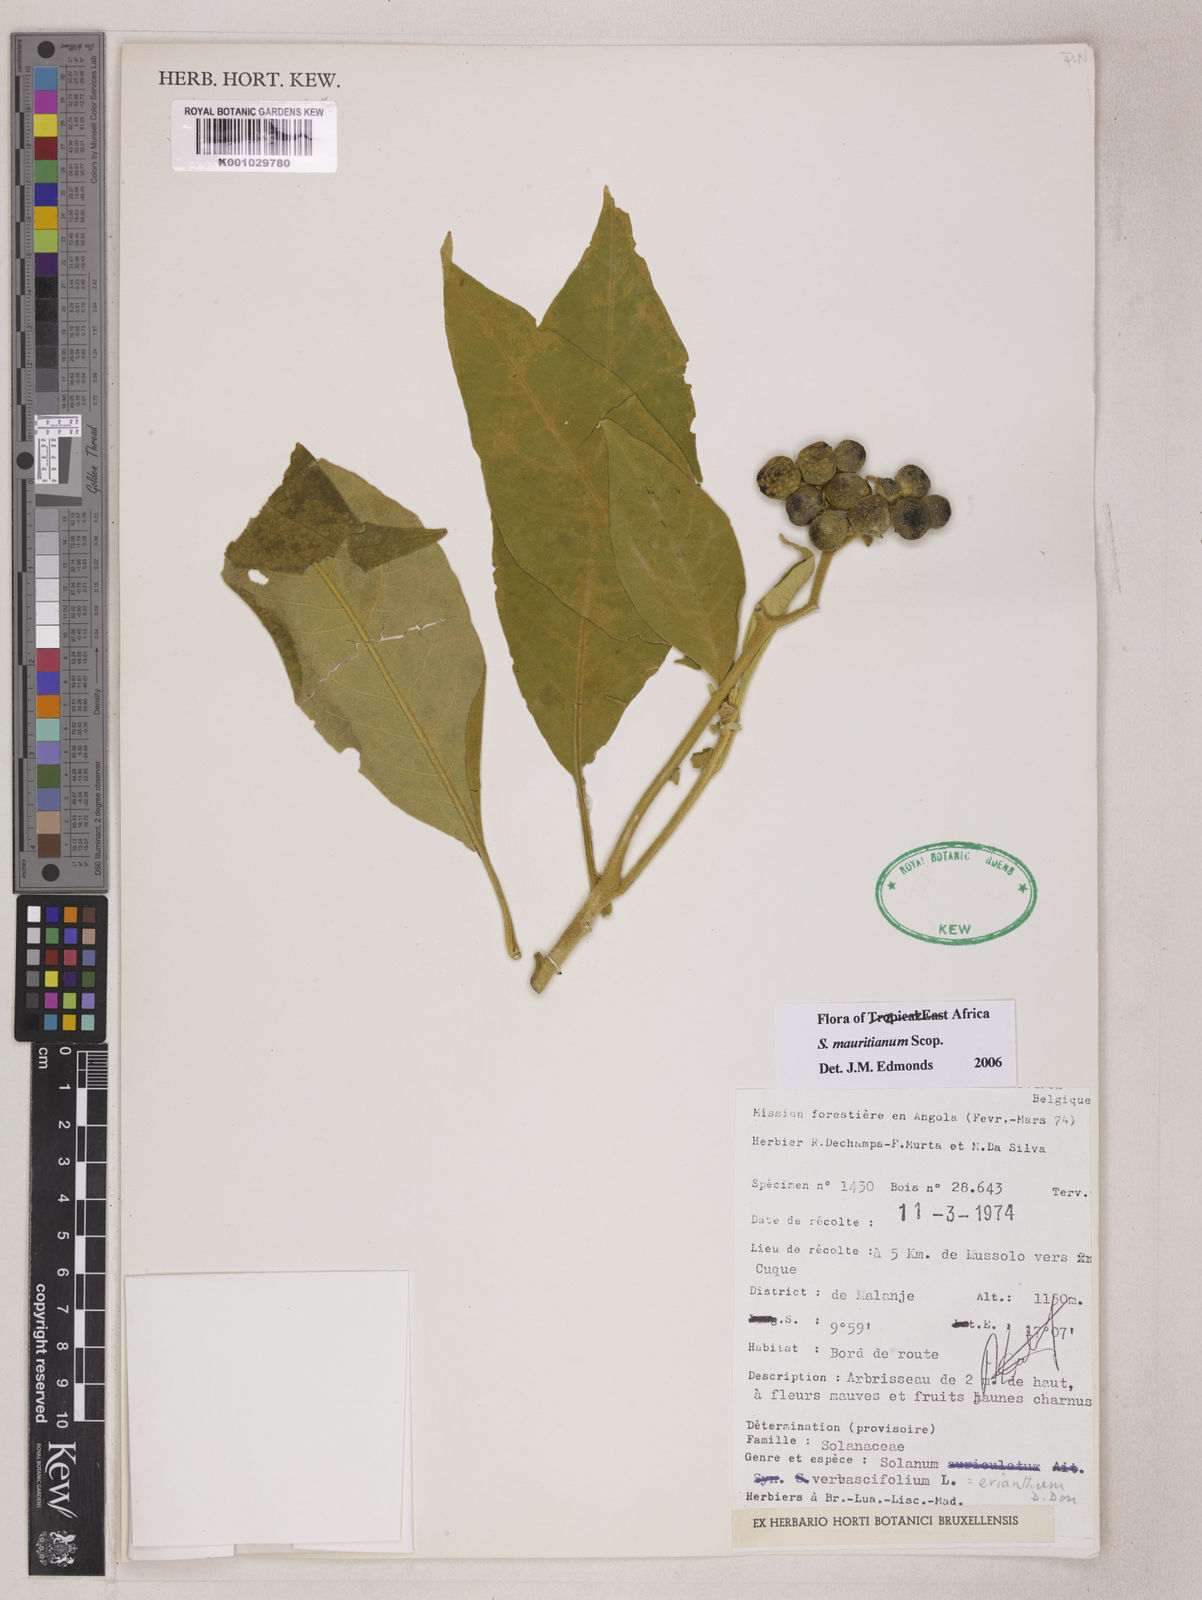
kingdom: Plantae
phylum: Tracheophyta
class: Magnoliopsida
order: Solanales
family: Solanaceae
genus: Solanum
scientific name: Solanum mauritianum
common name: Earleaf nightshade
